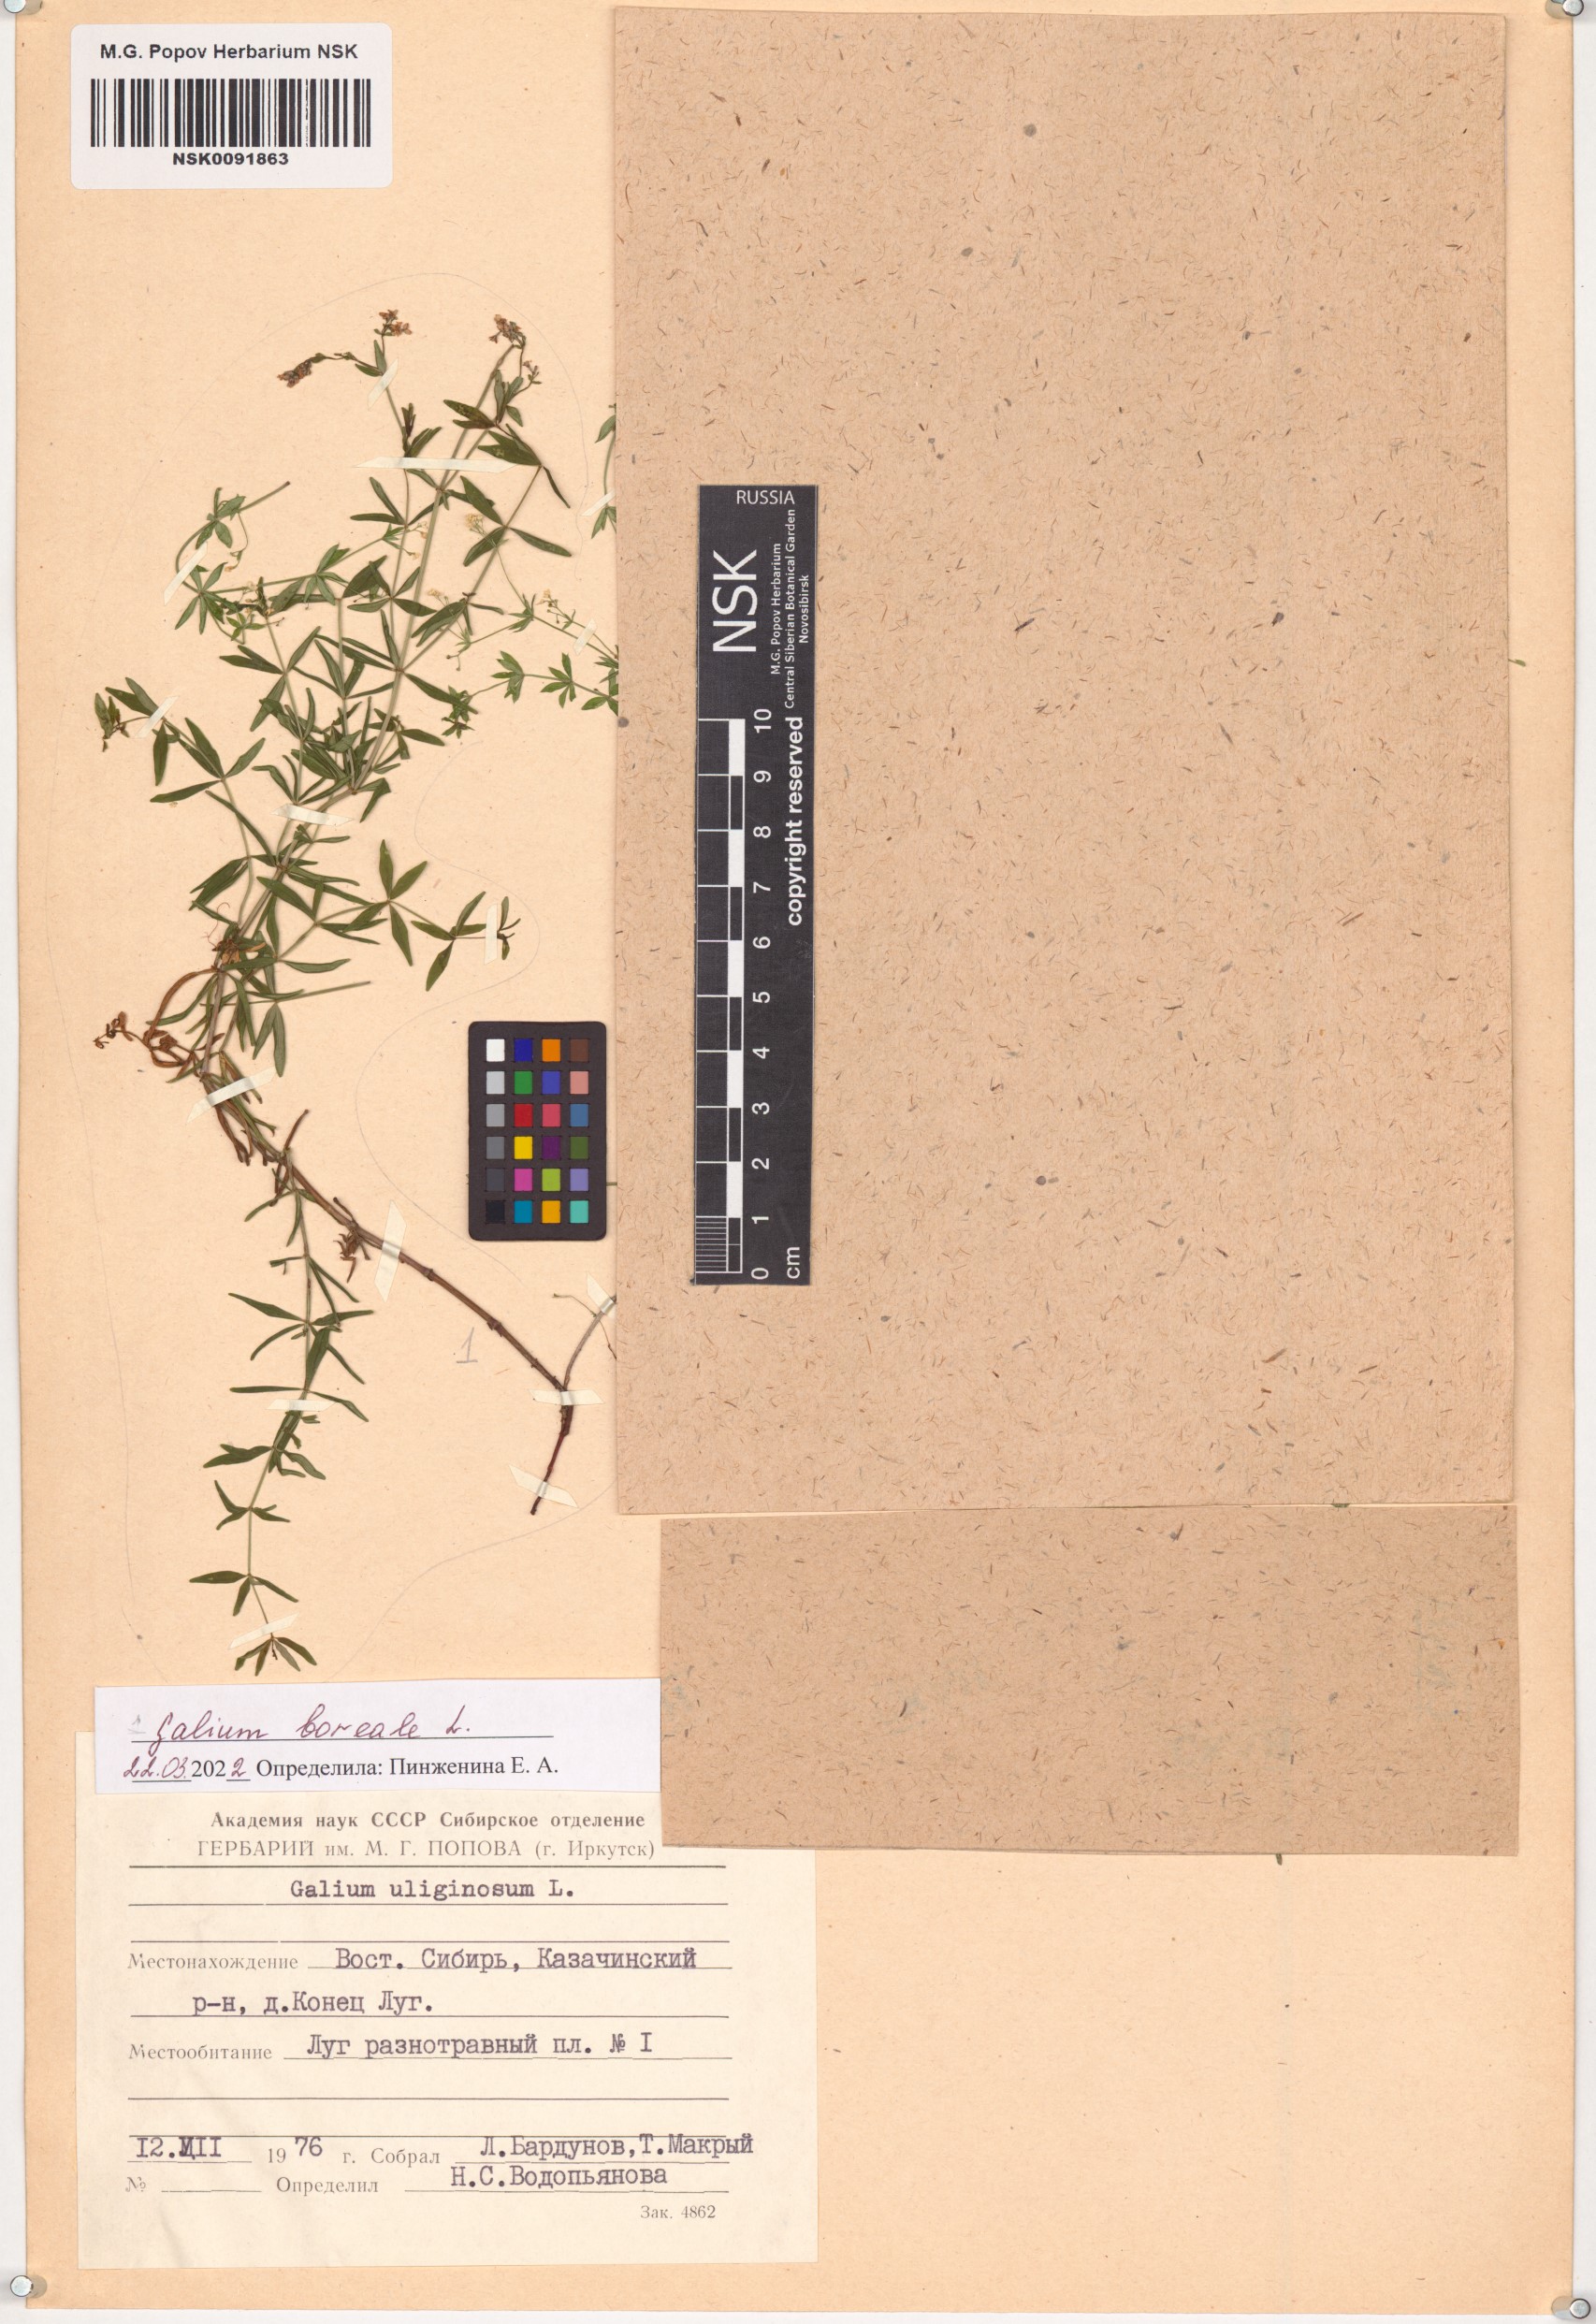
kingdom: Plantae
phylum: Tracheophyta
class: Magnoliopsida
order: Gentianales
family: Rubiaceae
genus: Galium
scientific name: Galium boreale
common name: Northern bedstraw
